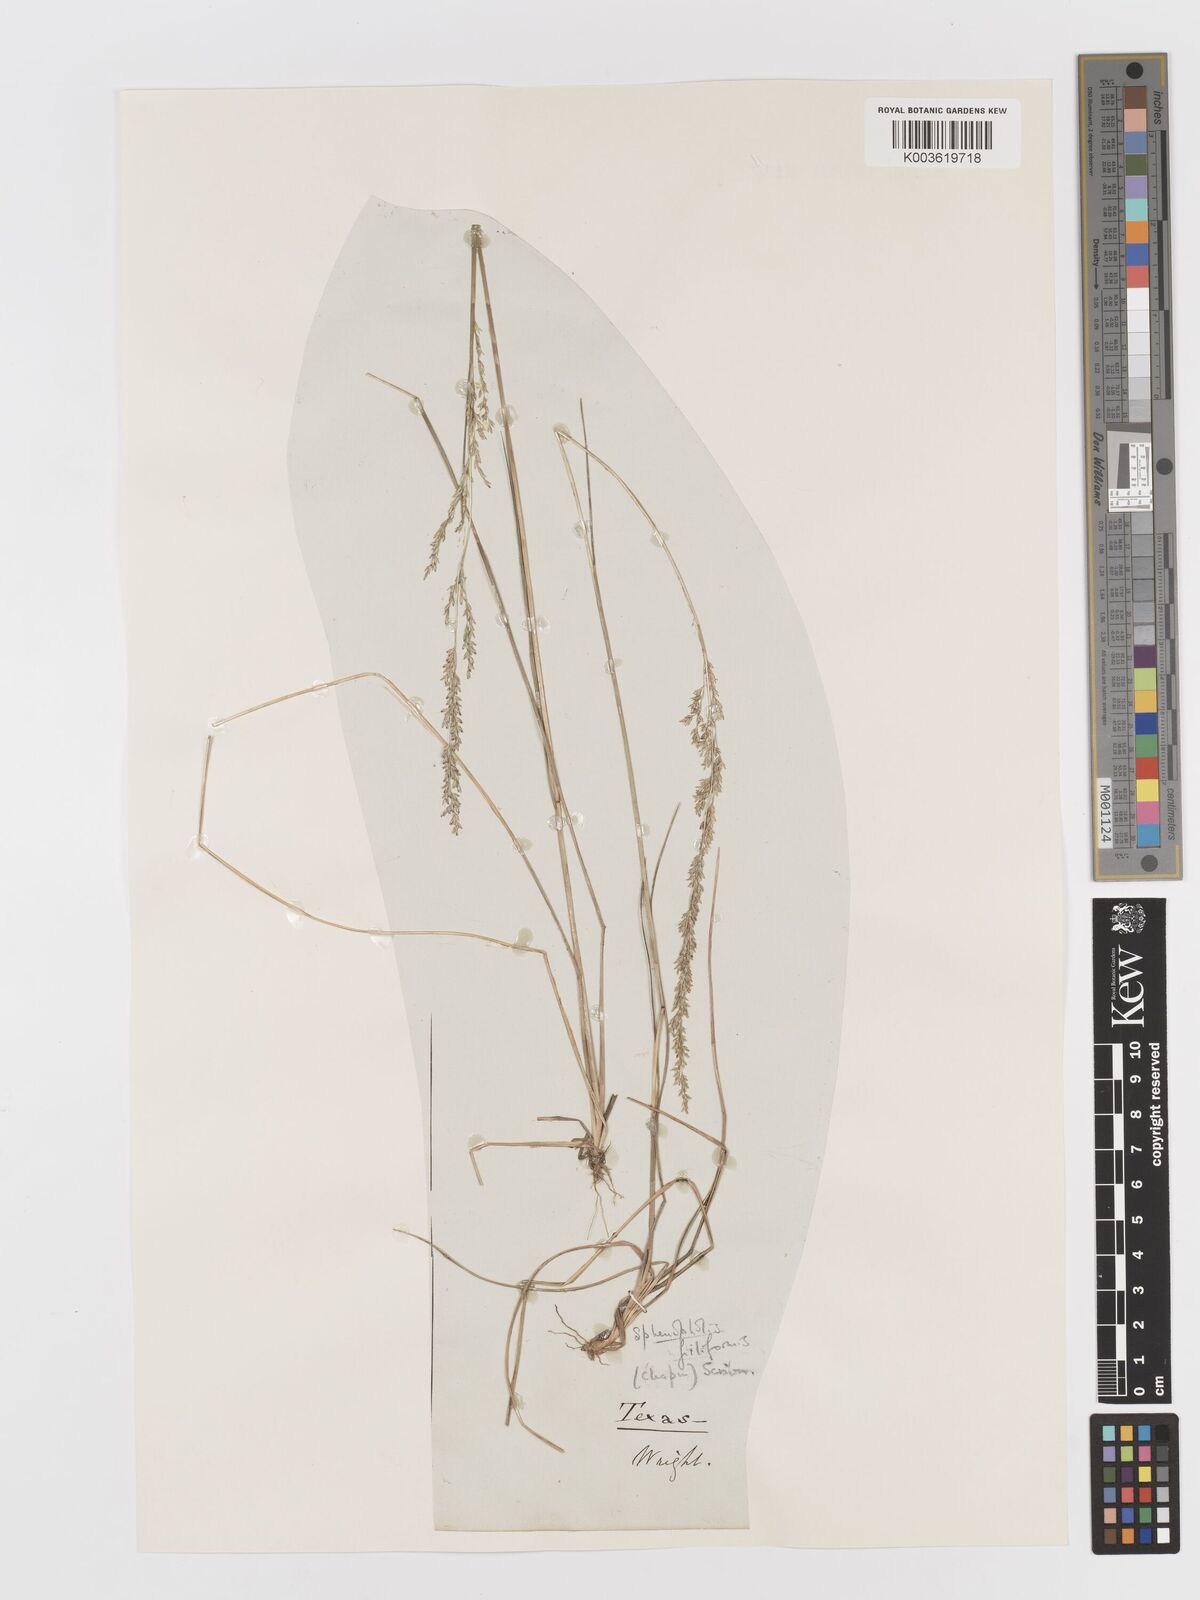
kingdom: Plantae
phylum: Tracheophyta
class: Liliopsida
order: Poales
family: Poaceae
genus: Sphenopholis
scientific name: Sphenopholis filiformis
